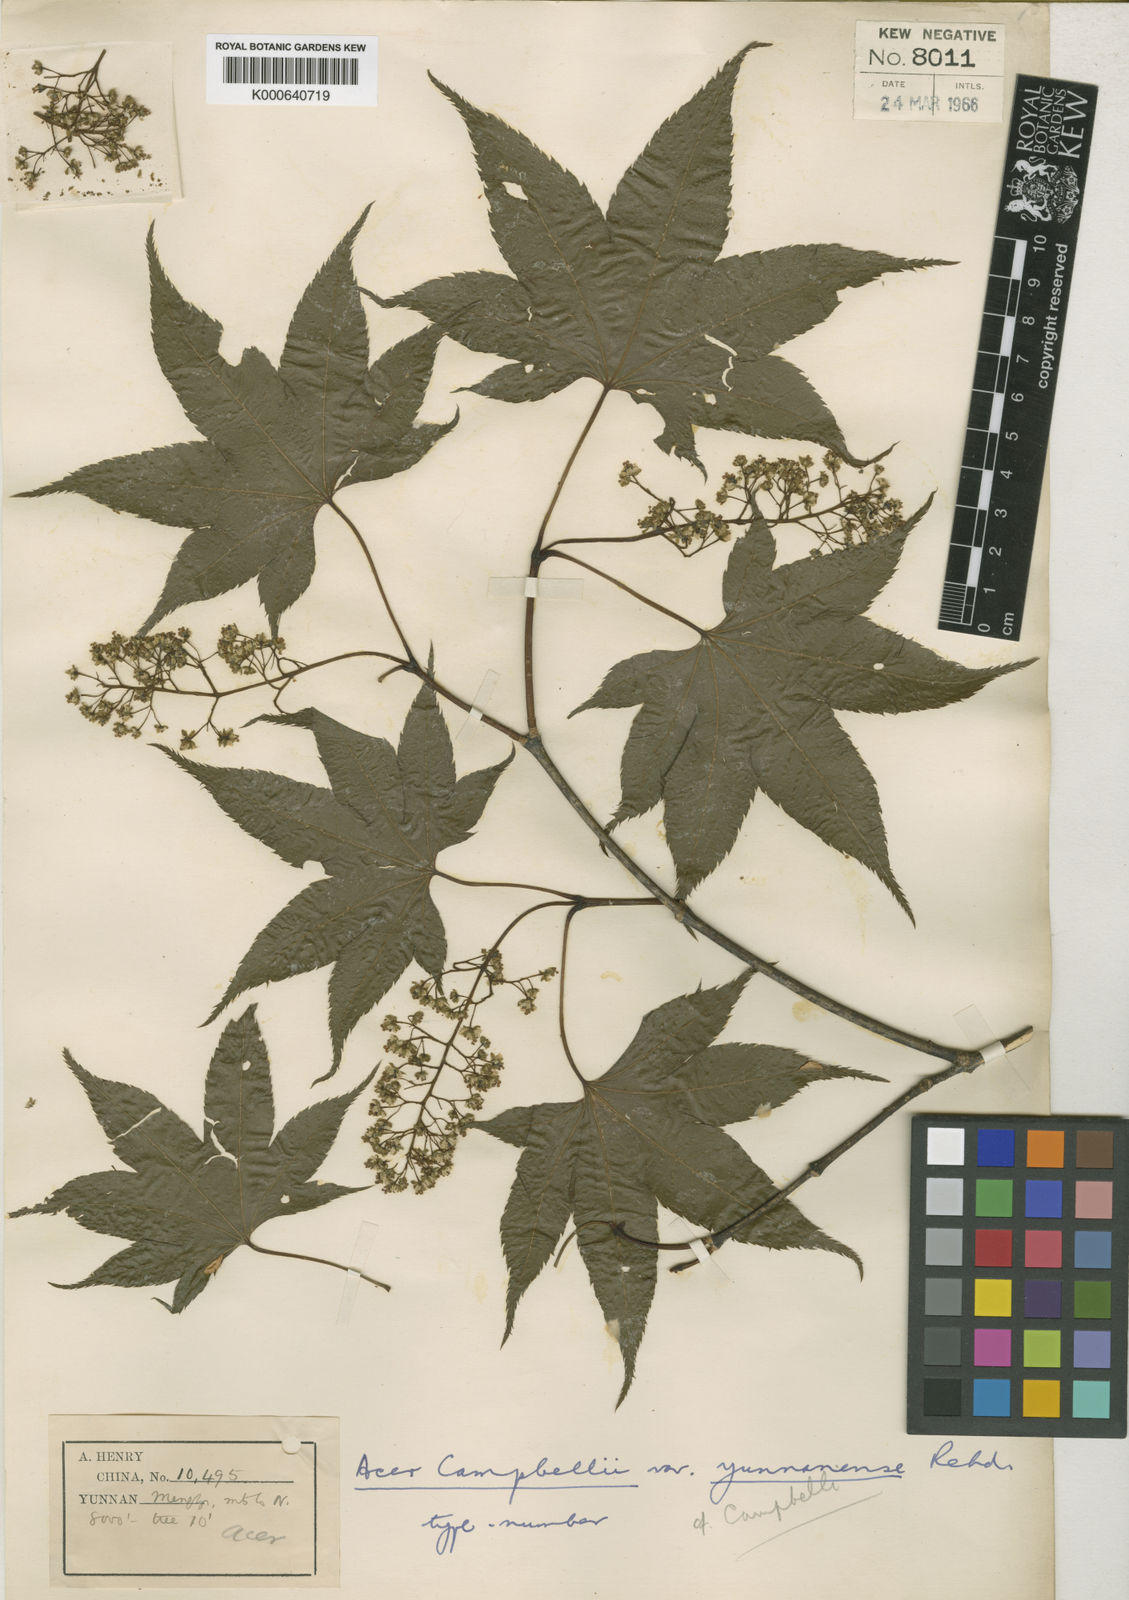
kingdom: Plantae
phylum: Tracheophyta
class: Magnoliopsida
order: Sapindales
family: Sapindaceae
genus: Acer
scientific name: Acer
